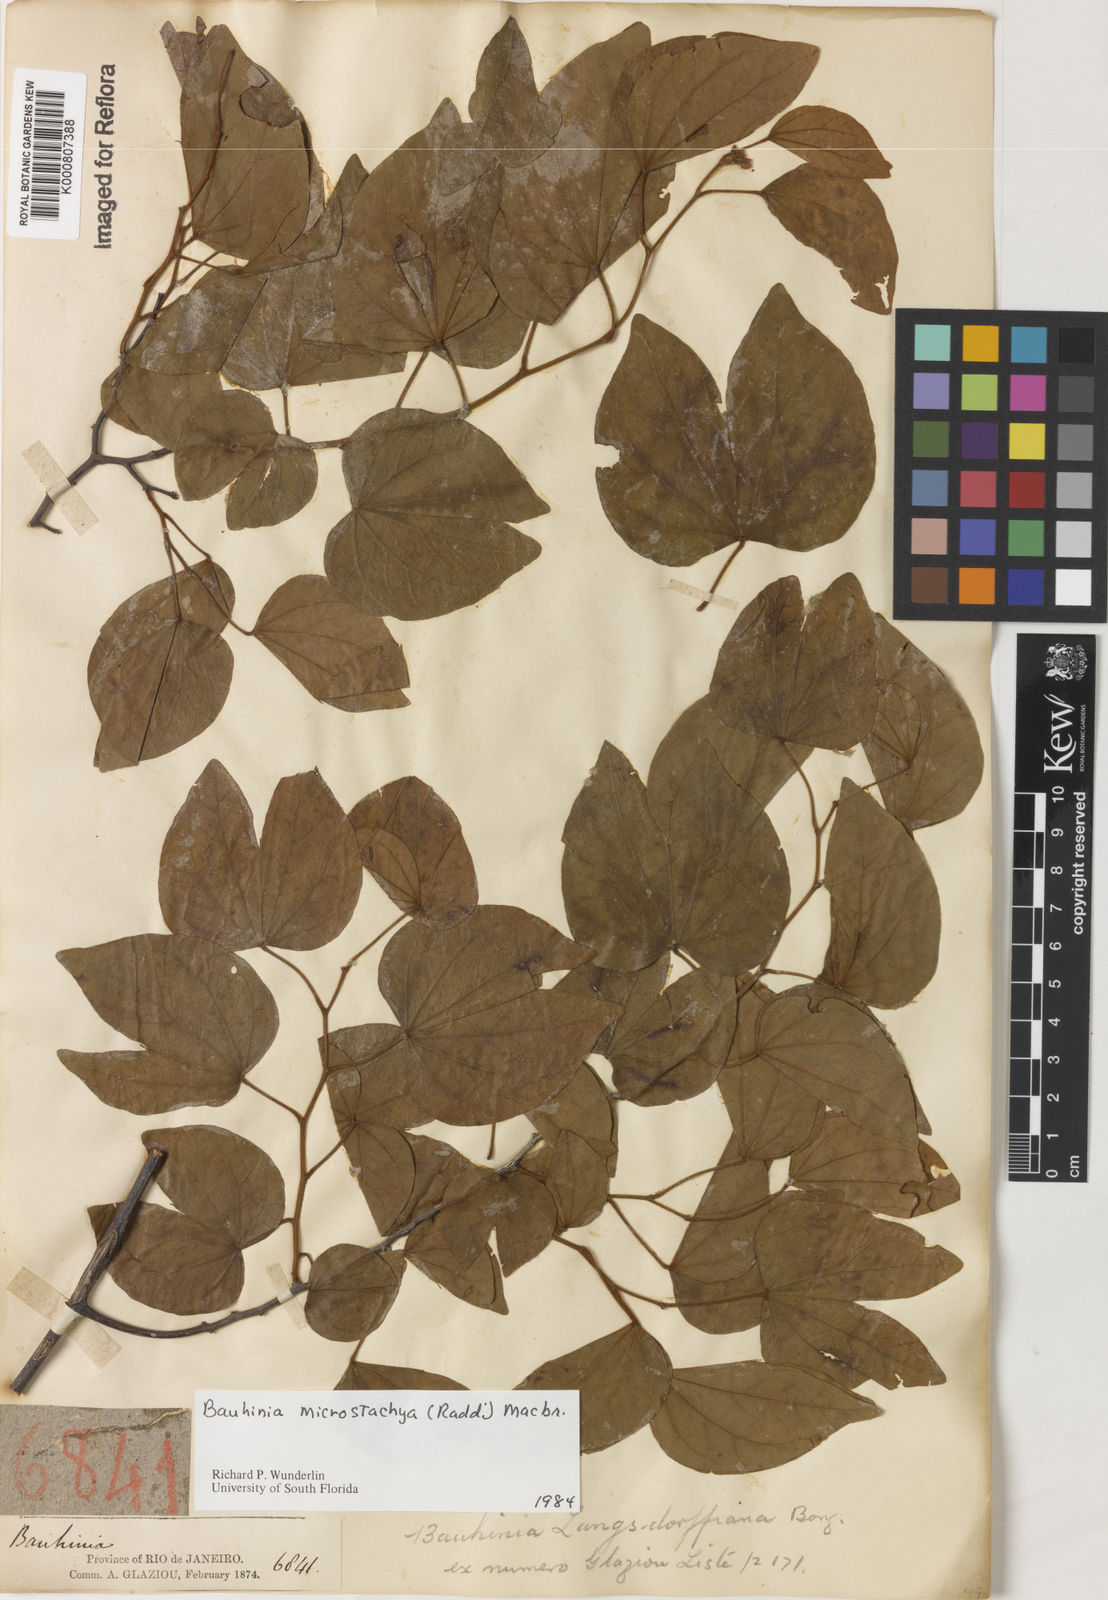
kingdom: Plantae
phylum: Tracheophyta
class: Magnoliopsida
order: Fabales
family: Fabaceae
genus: Schnella
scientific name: Schnella microstachya
